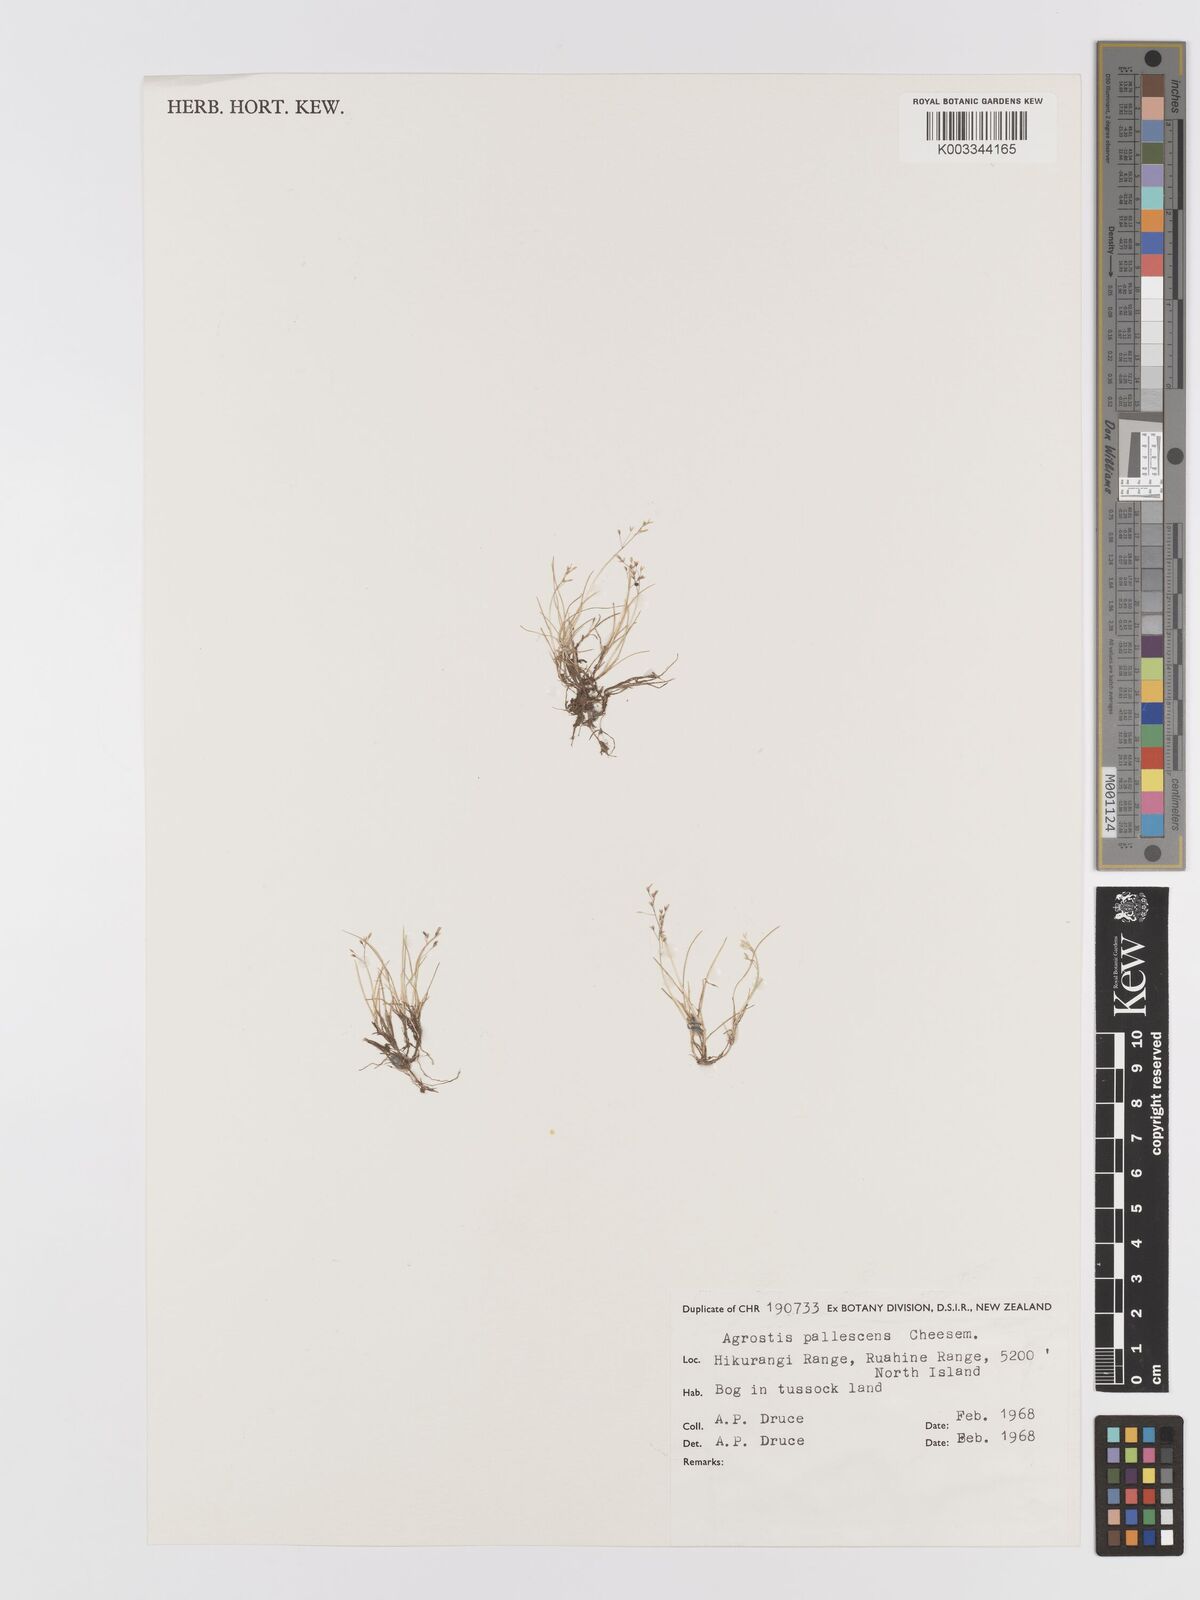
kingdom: Plantae
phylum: Tracheophyta
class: Liliopsida
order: Poales
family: Poaceae
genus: Agrostis
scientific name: Agrostis pallescens
